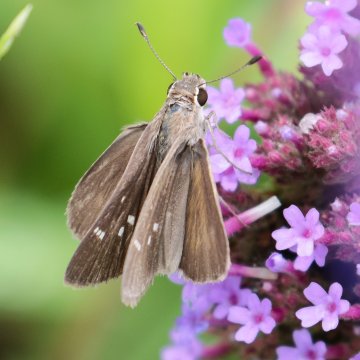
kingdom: Animalia
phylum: Arthropoda
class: Insecta
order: Lepidoptera
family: Hesperiidae
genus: Lerodea
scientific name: Lerodea eufala
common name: Eufala Skipper
